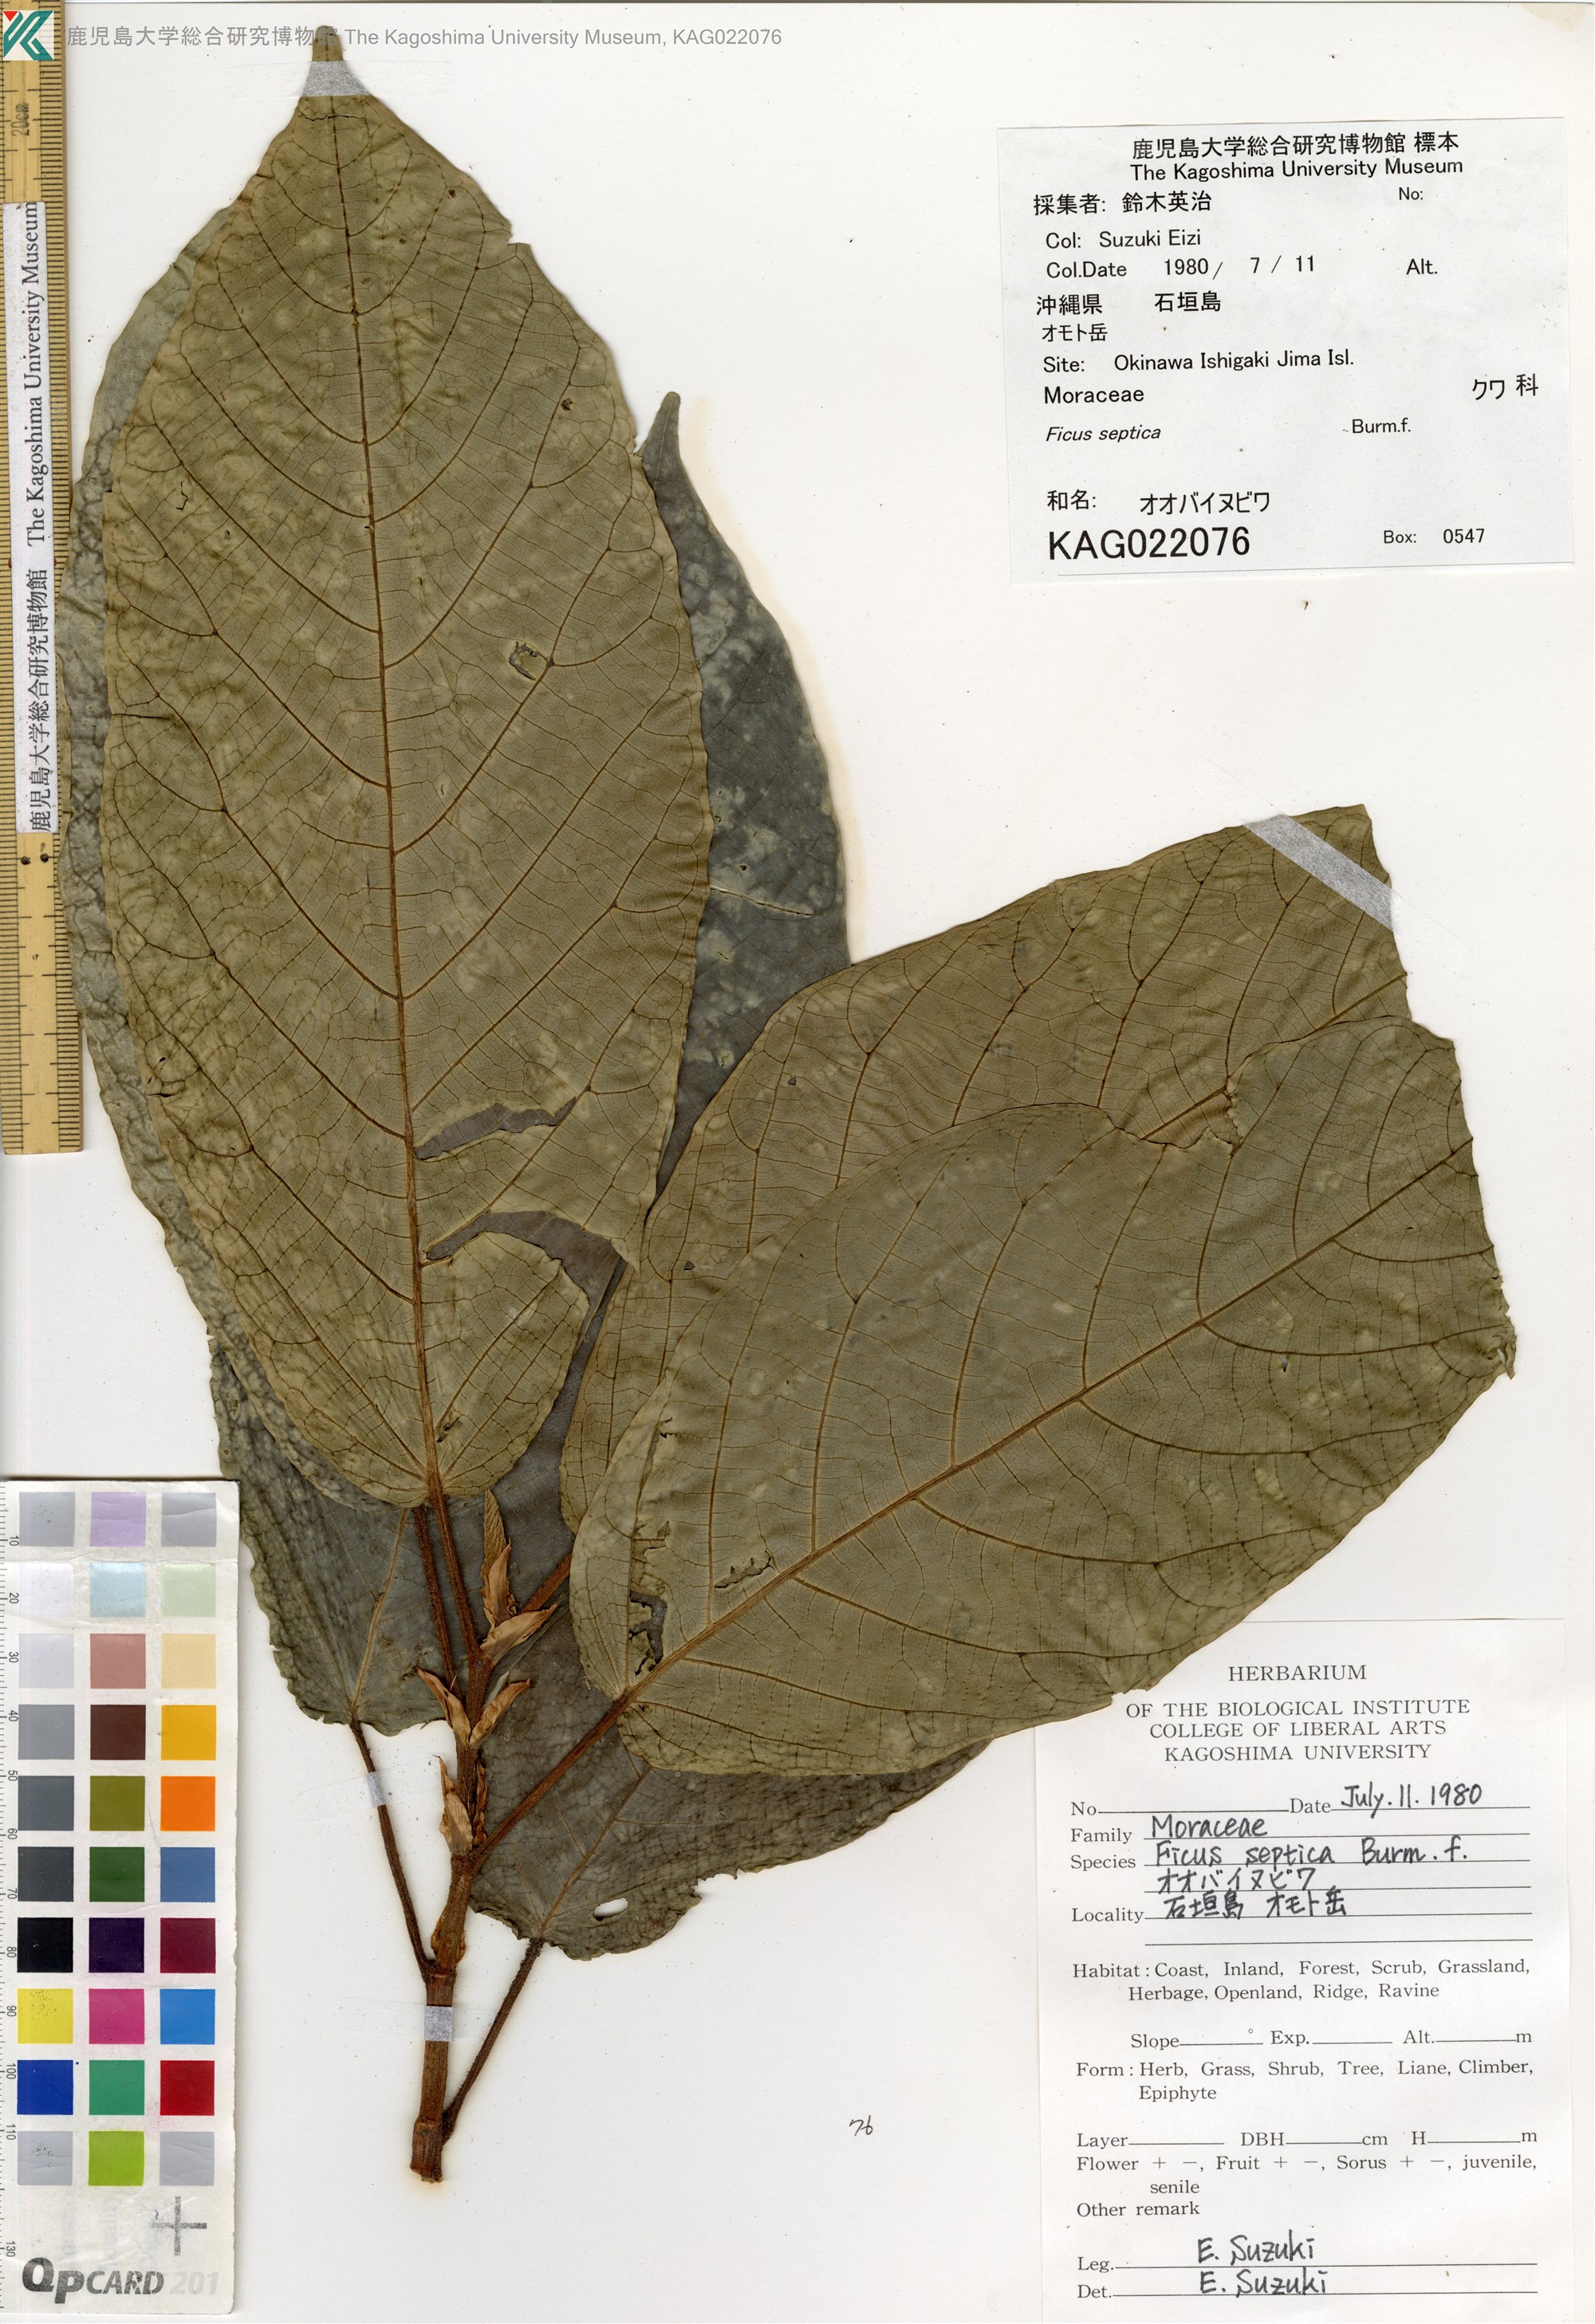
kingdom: Plantae
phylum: Tracheophyta
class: Magnoliopsida
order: Rosales
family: Moraceae
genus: Ficus
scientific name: Ficus septica
